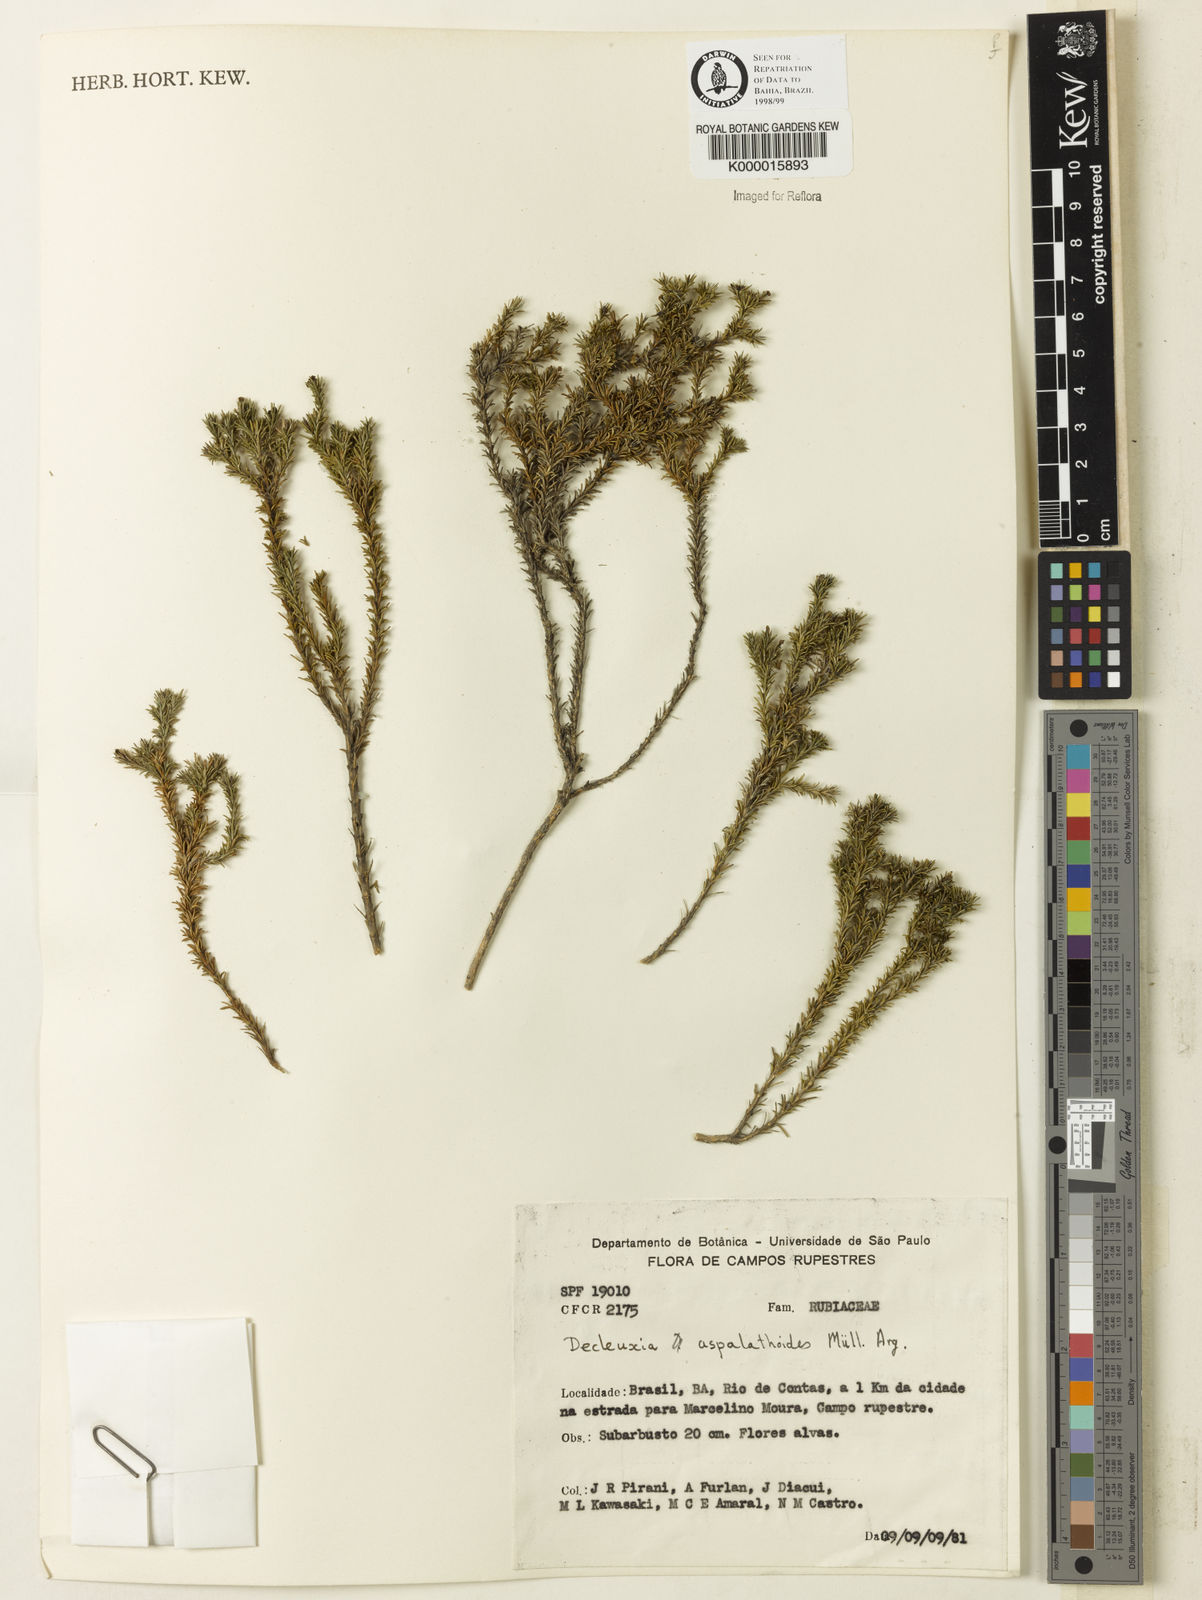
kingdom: Plantae
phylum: Tracheophyta
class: Magnoliopsida
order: Gentianales
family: Rubiaceae
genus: Declieuxia
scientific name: Declieuxia aspalathoides
